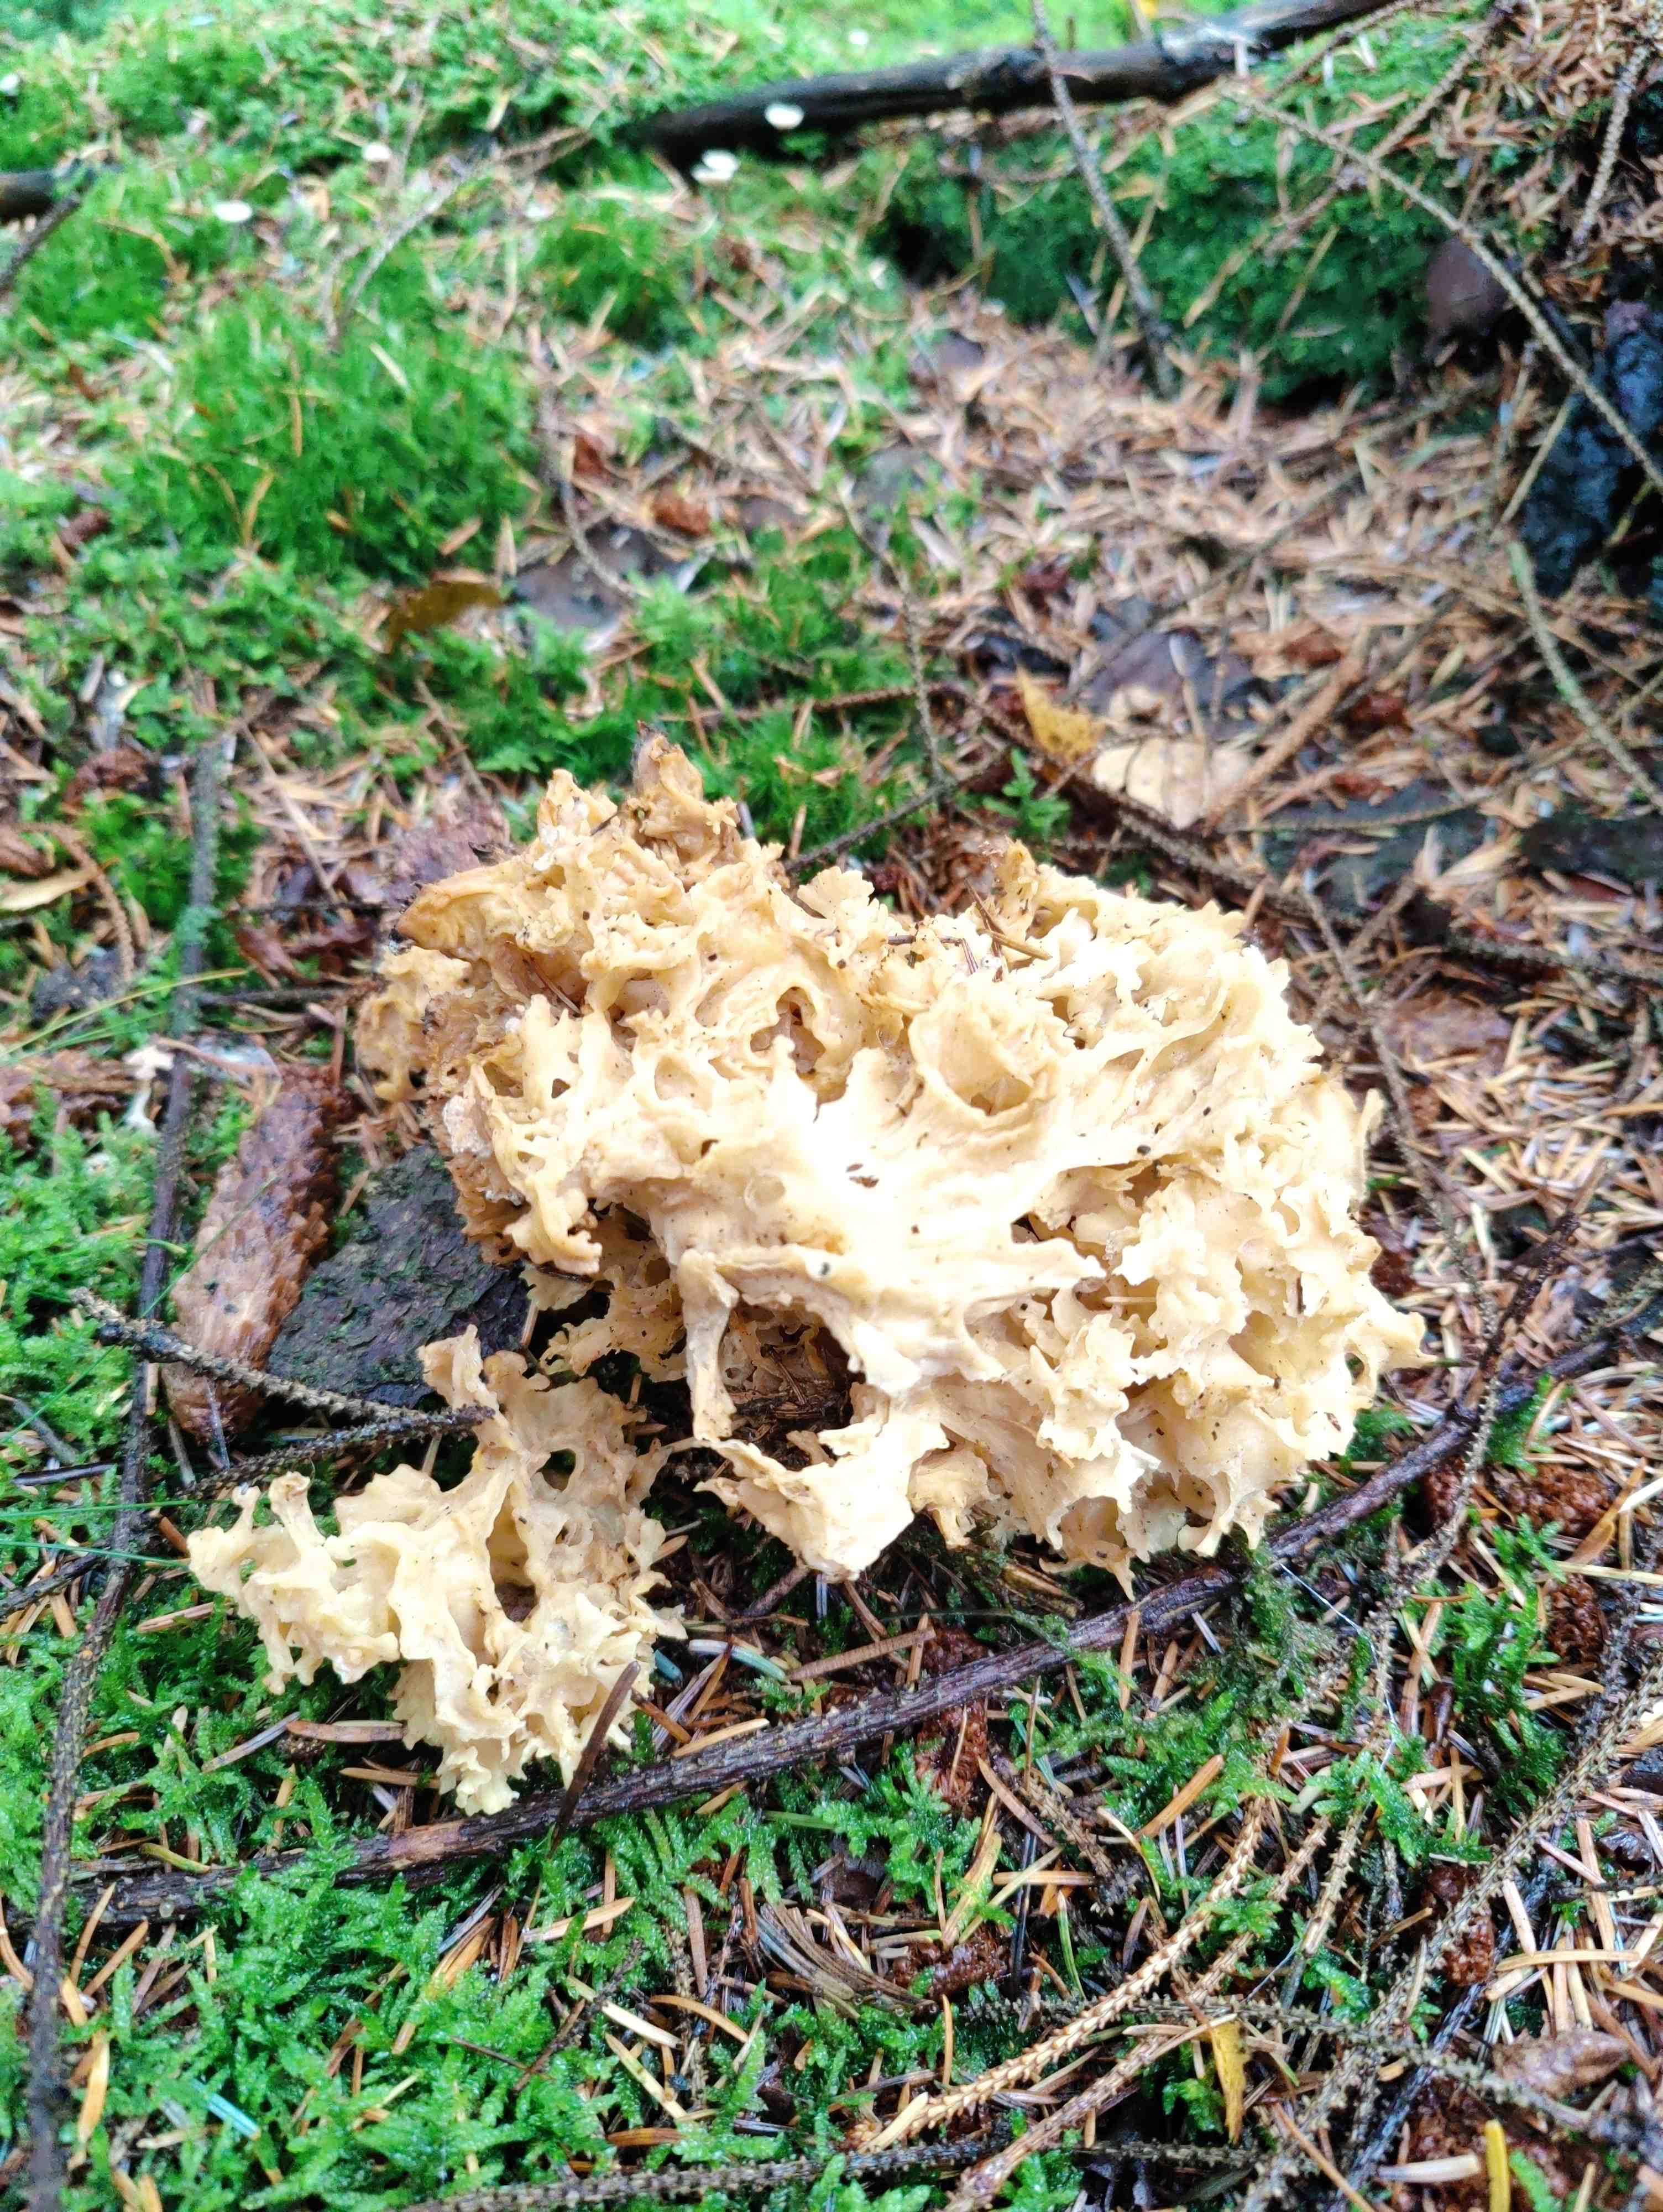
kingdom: Fungi
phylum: Basidiomycota
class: Agaricomycetes
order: Polyporales
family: Sparassidaceae
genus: Sparassis
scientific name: Sparassis crispa
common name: kruset blomkålssvamp
